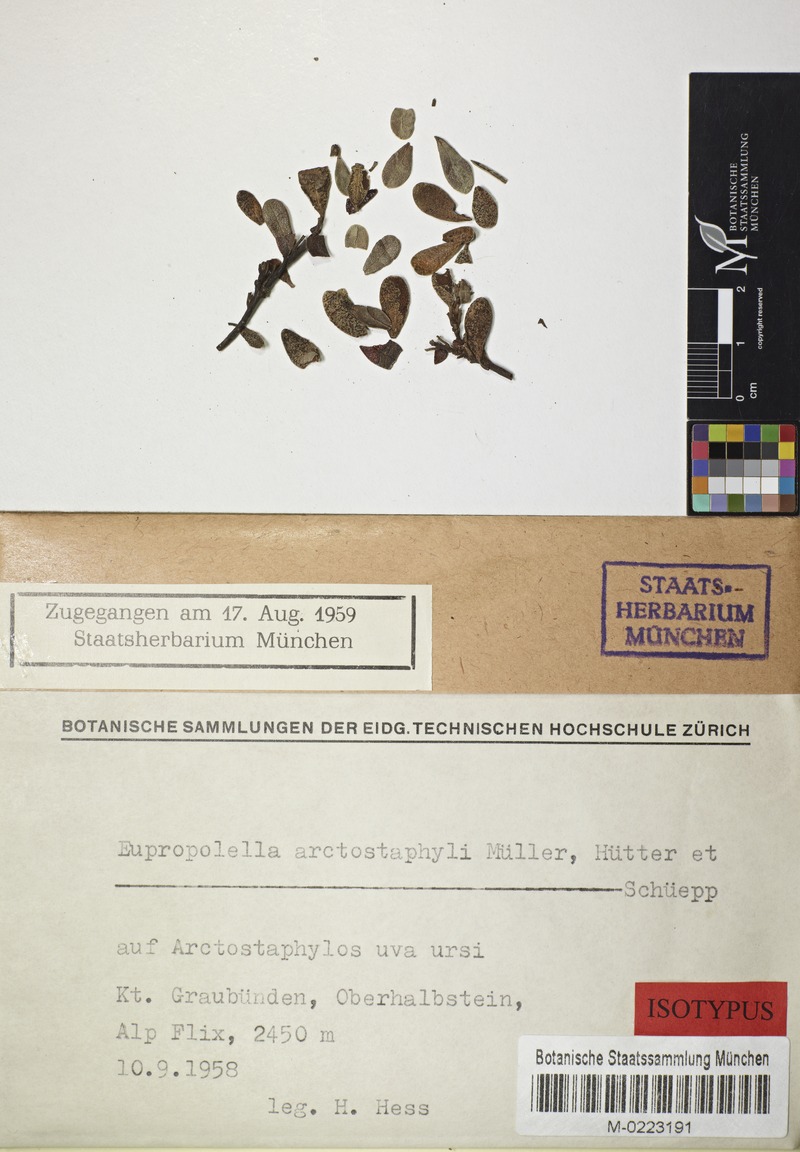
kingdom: Fungi
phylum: Ascomycota
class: Leotiomycetes
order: Helotiales
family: Calloriaceae
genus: Eupropolella
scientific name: Eupropolella arctostaphyli
